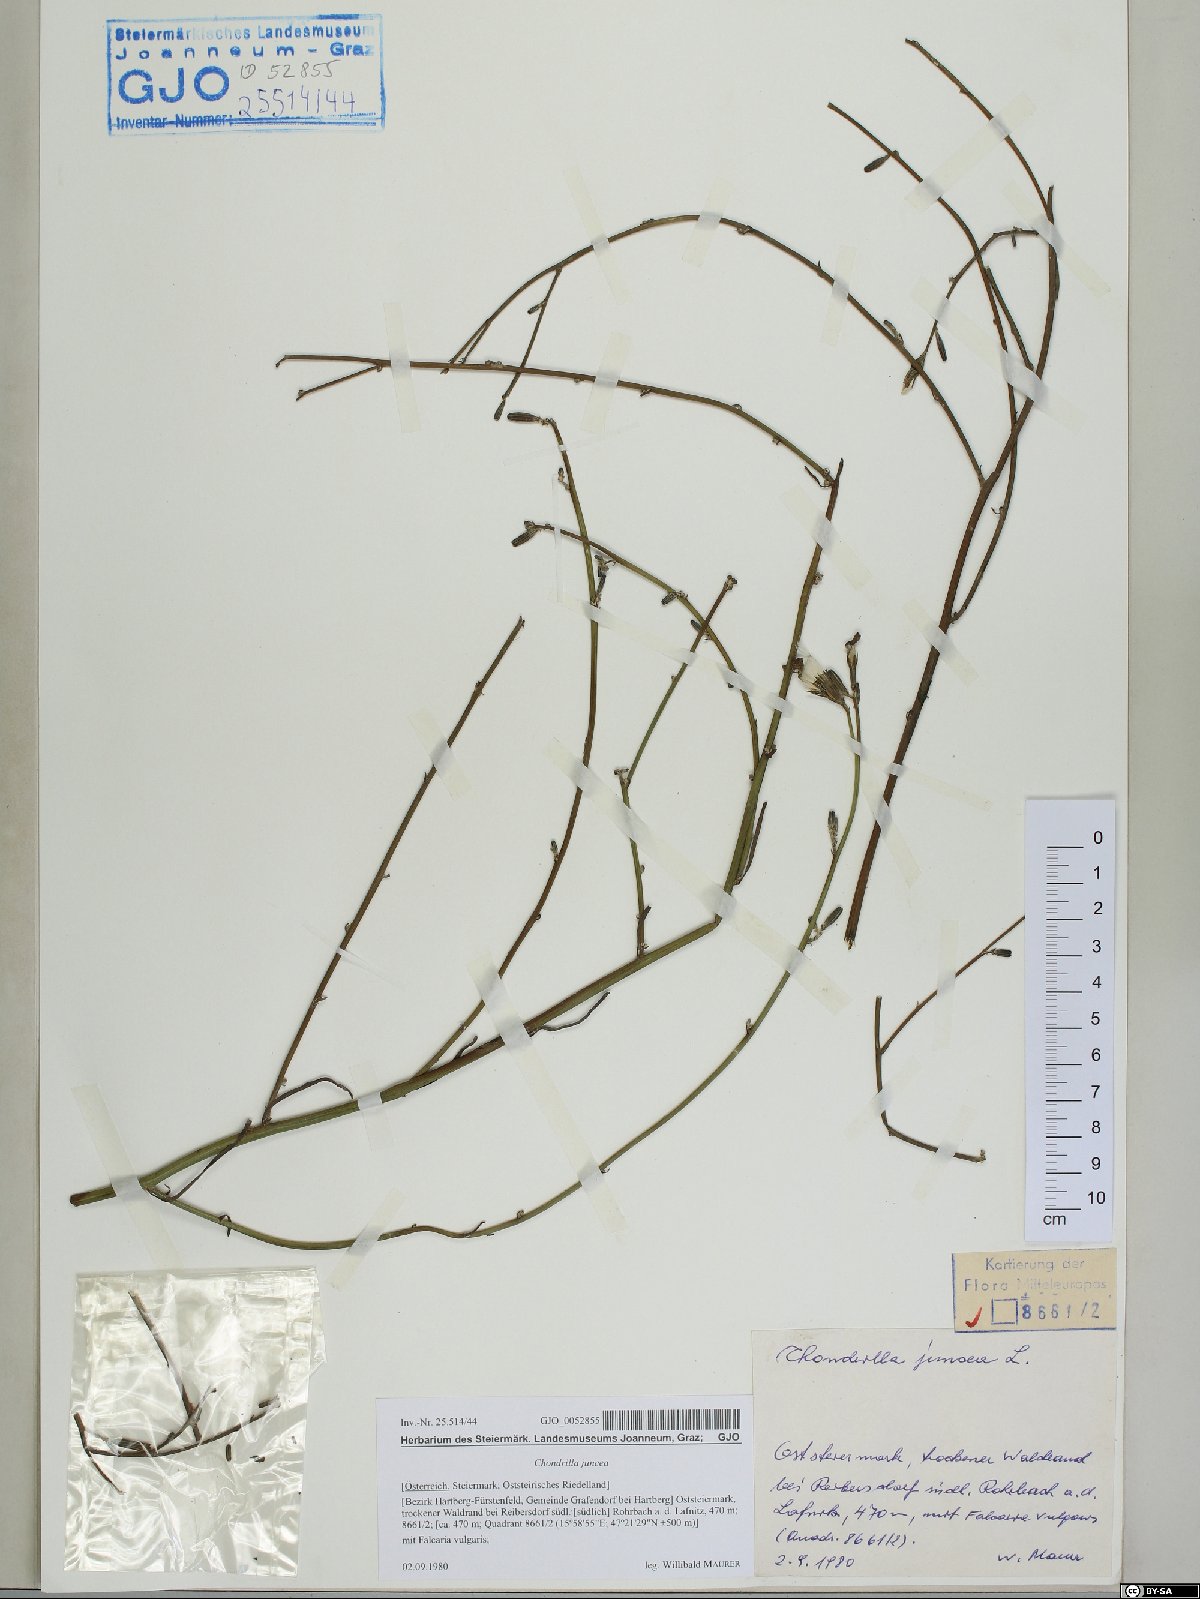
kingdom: Plantae
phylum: Tracheophyta
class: Magnoliopsida
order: Asterales
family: Asteraceae
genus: Chondrilla
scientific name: Chondrilla juncea
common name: Skeleton weed
